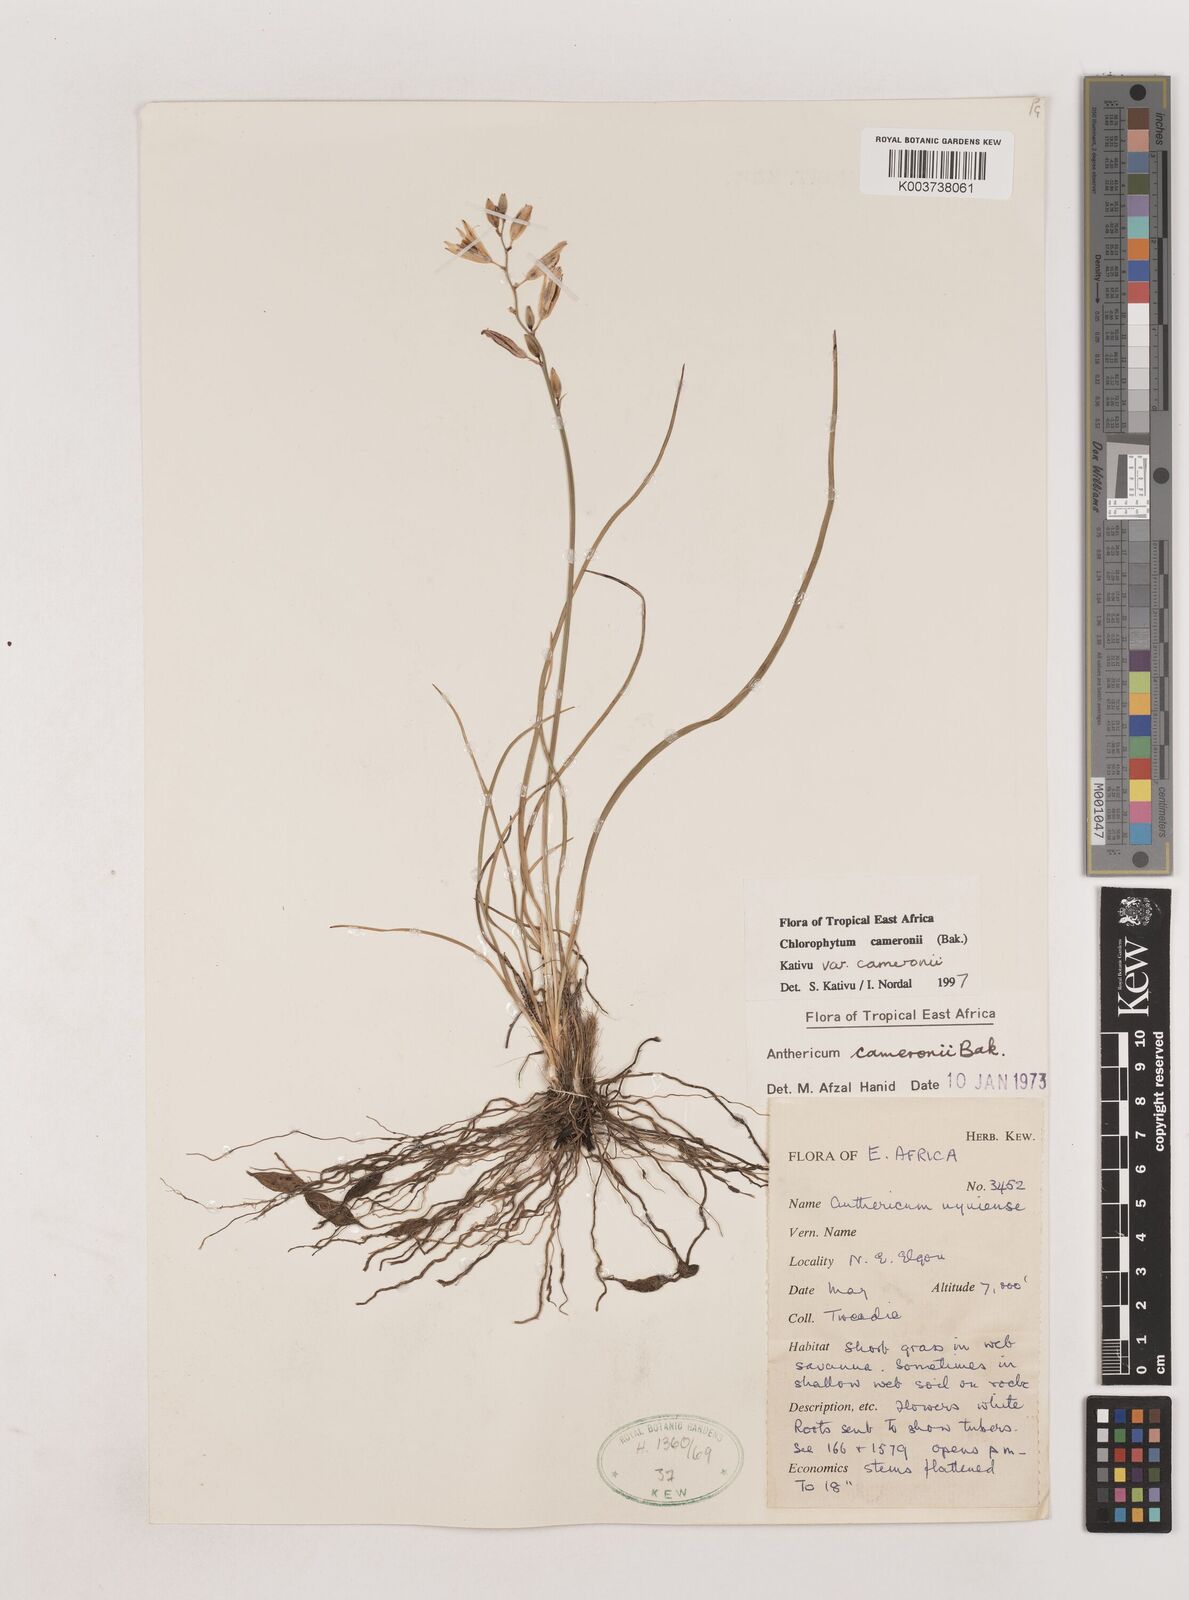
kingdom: Plantae
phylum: Tracheophyta
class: Liliopsida
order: Asparagales
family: Asparagaceae
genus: Chlorophytum
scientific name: Chlorophytum cameronii
